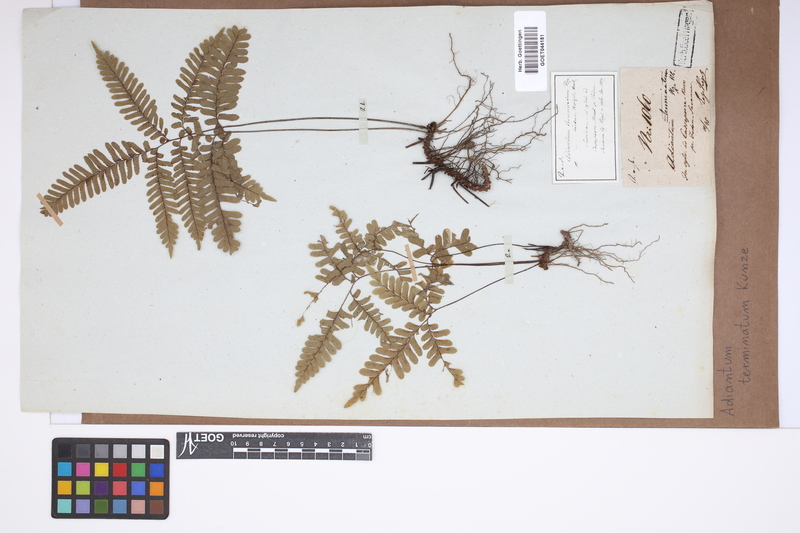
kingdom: Plantae
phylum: Tracheophyta
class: Polypodiopsida
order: Polypodiales
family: Pteridaceae
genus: Adiantum
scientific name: Adiantum terminatum
